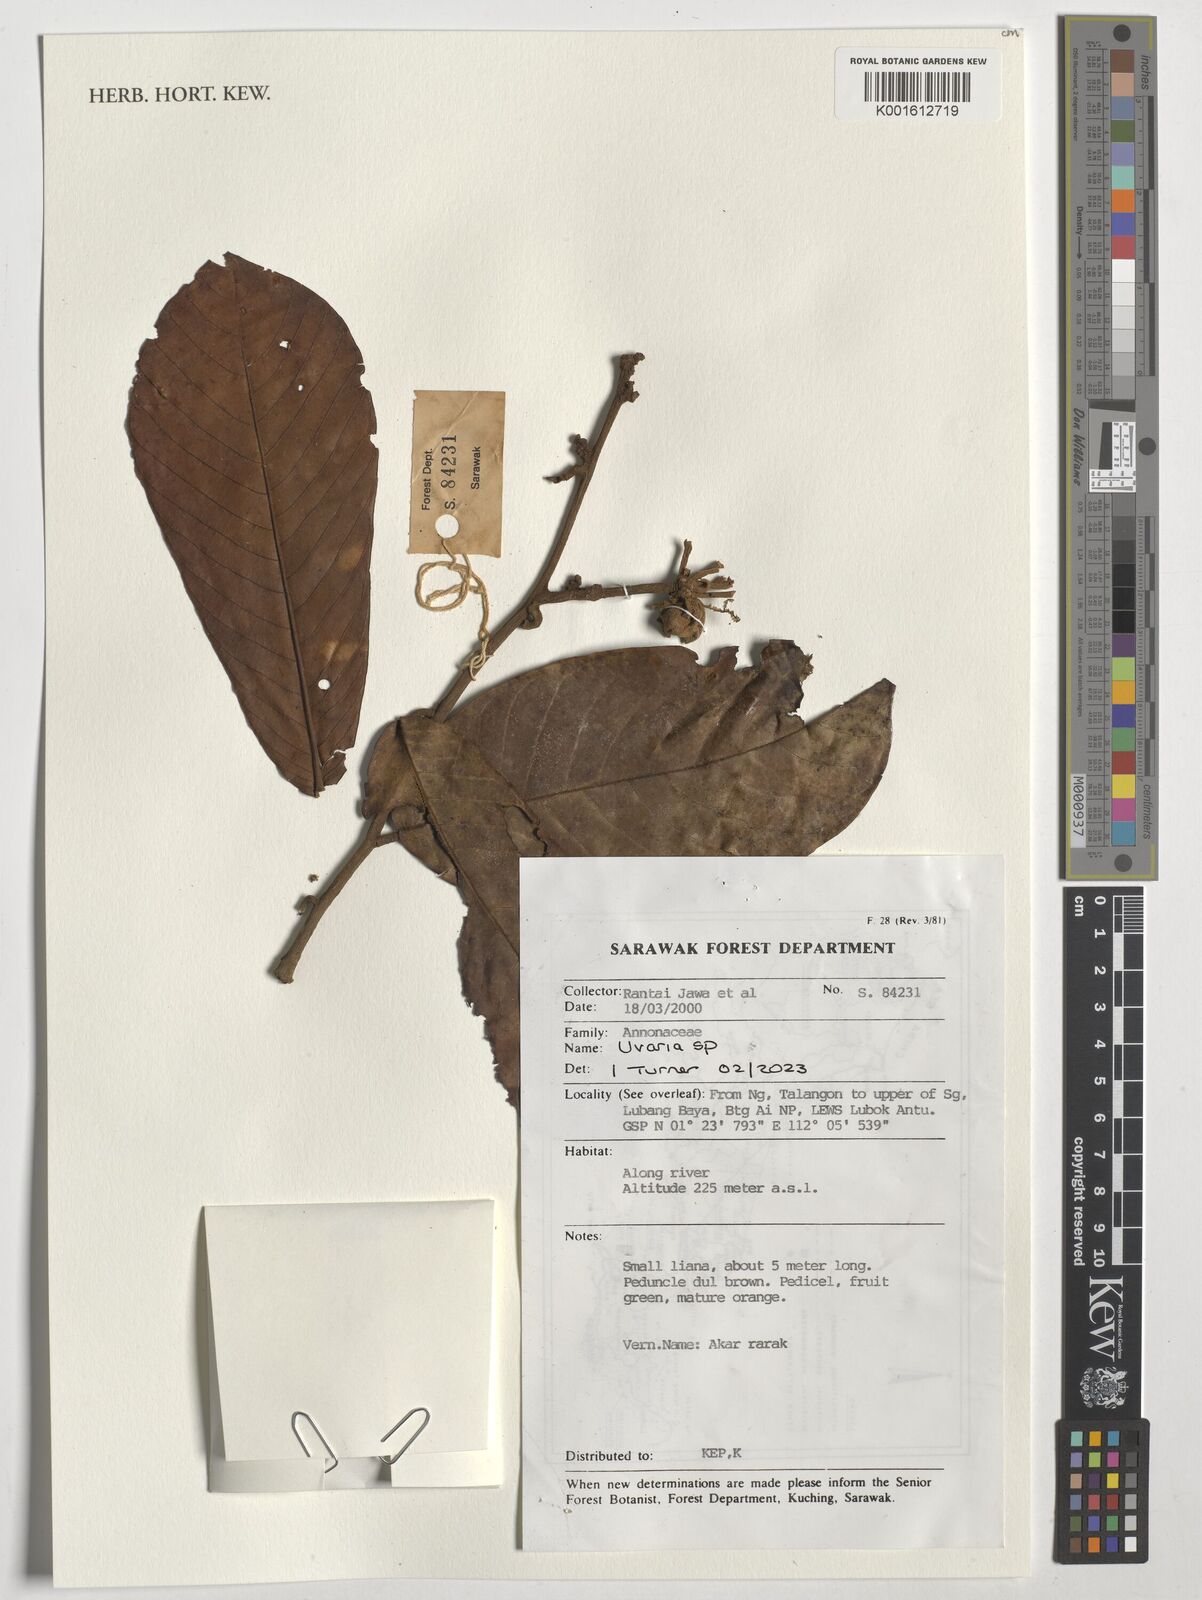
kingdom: Plantae
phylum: Tracheophyta
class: Magnoliopsida
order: Magnoliales
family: Annonaceae
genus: Uvaria
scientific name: Uvaria
